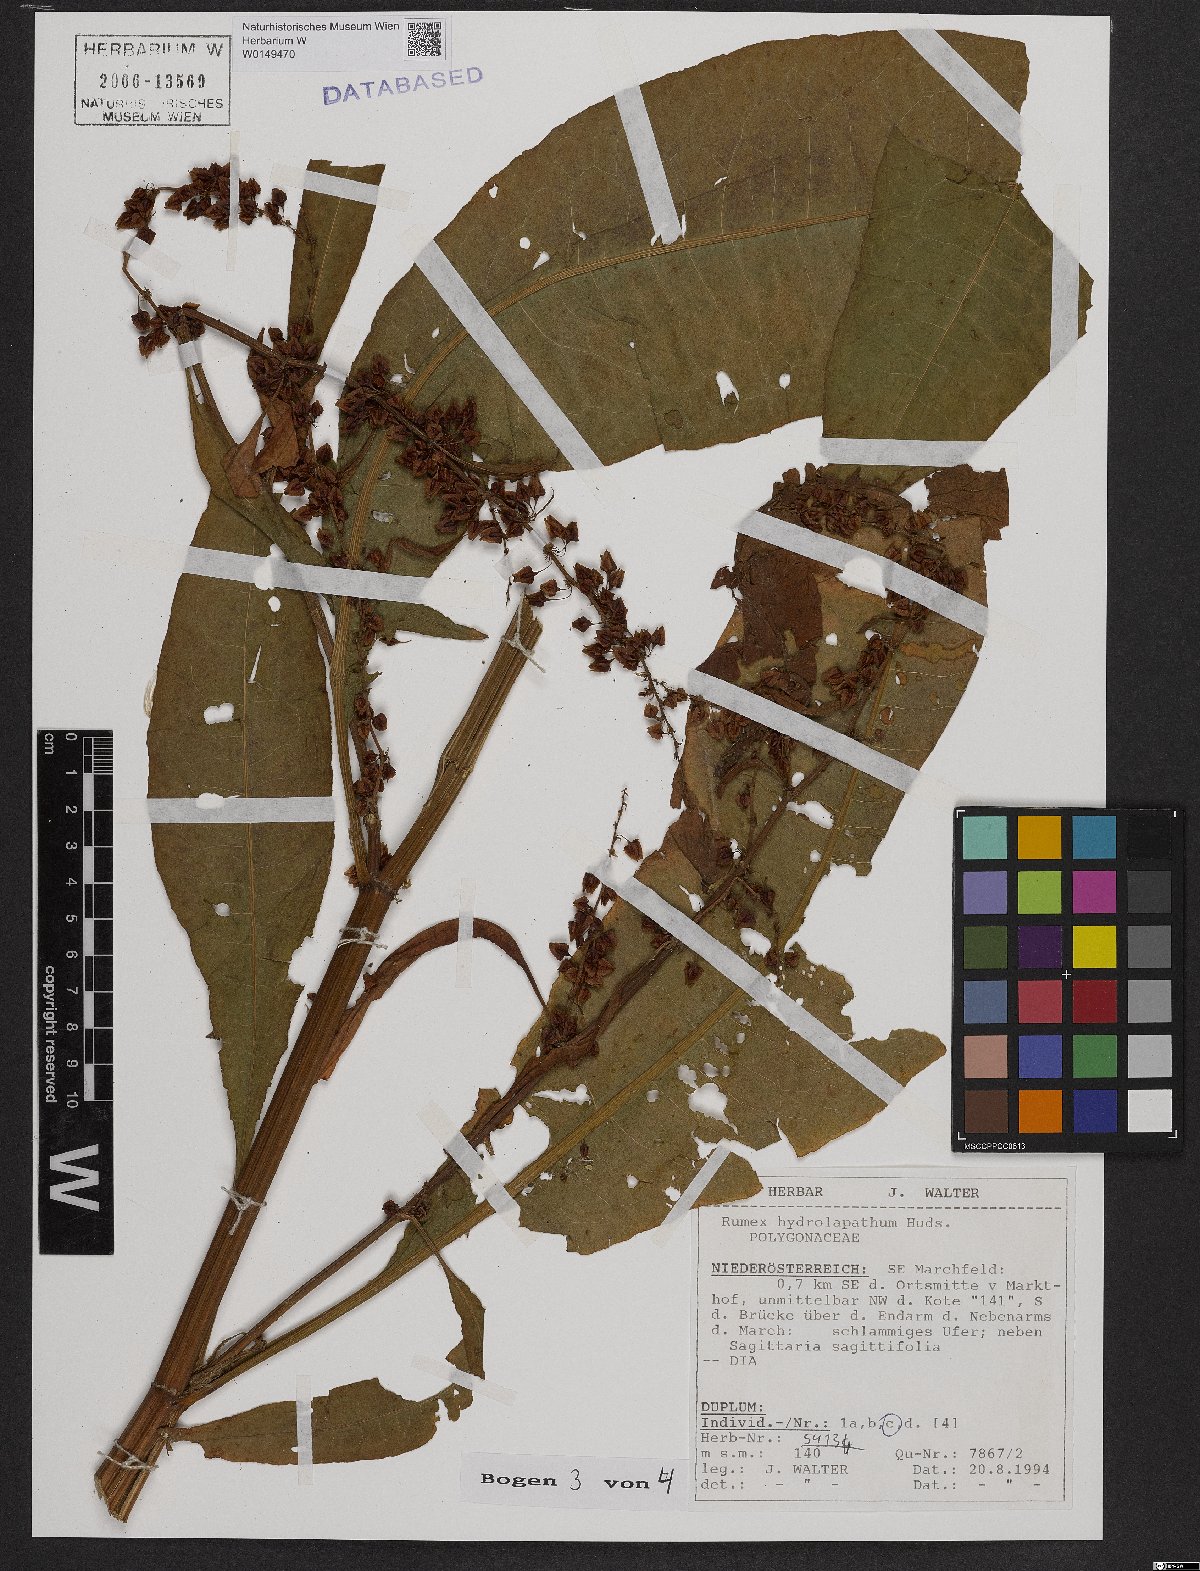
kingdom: Plantae
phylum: Tracheophyta
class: Magnoliopsida
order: Caryophyllales
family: Polygonaceae
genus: Rumex
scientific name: Rumex hydrolapathum
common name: Water dock
